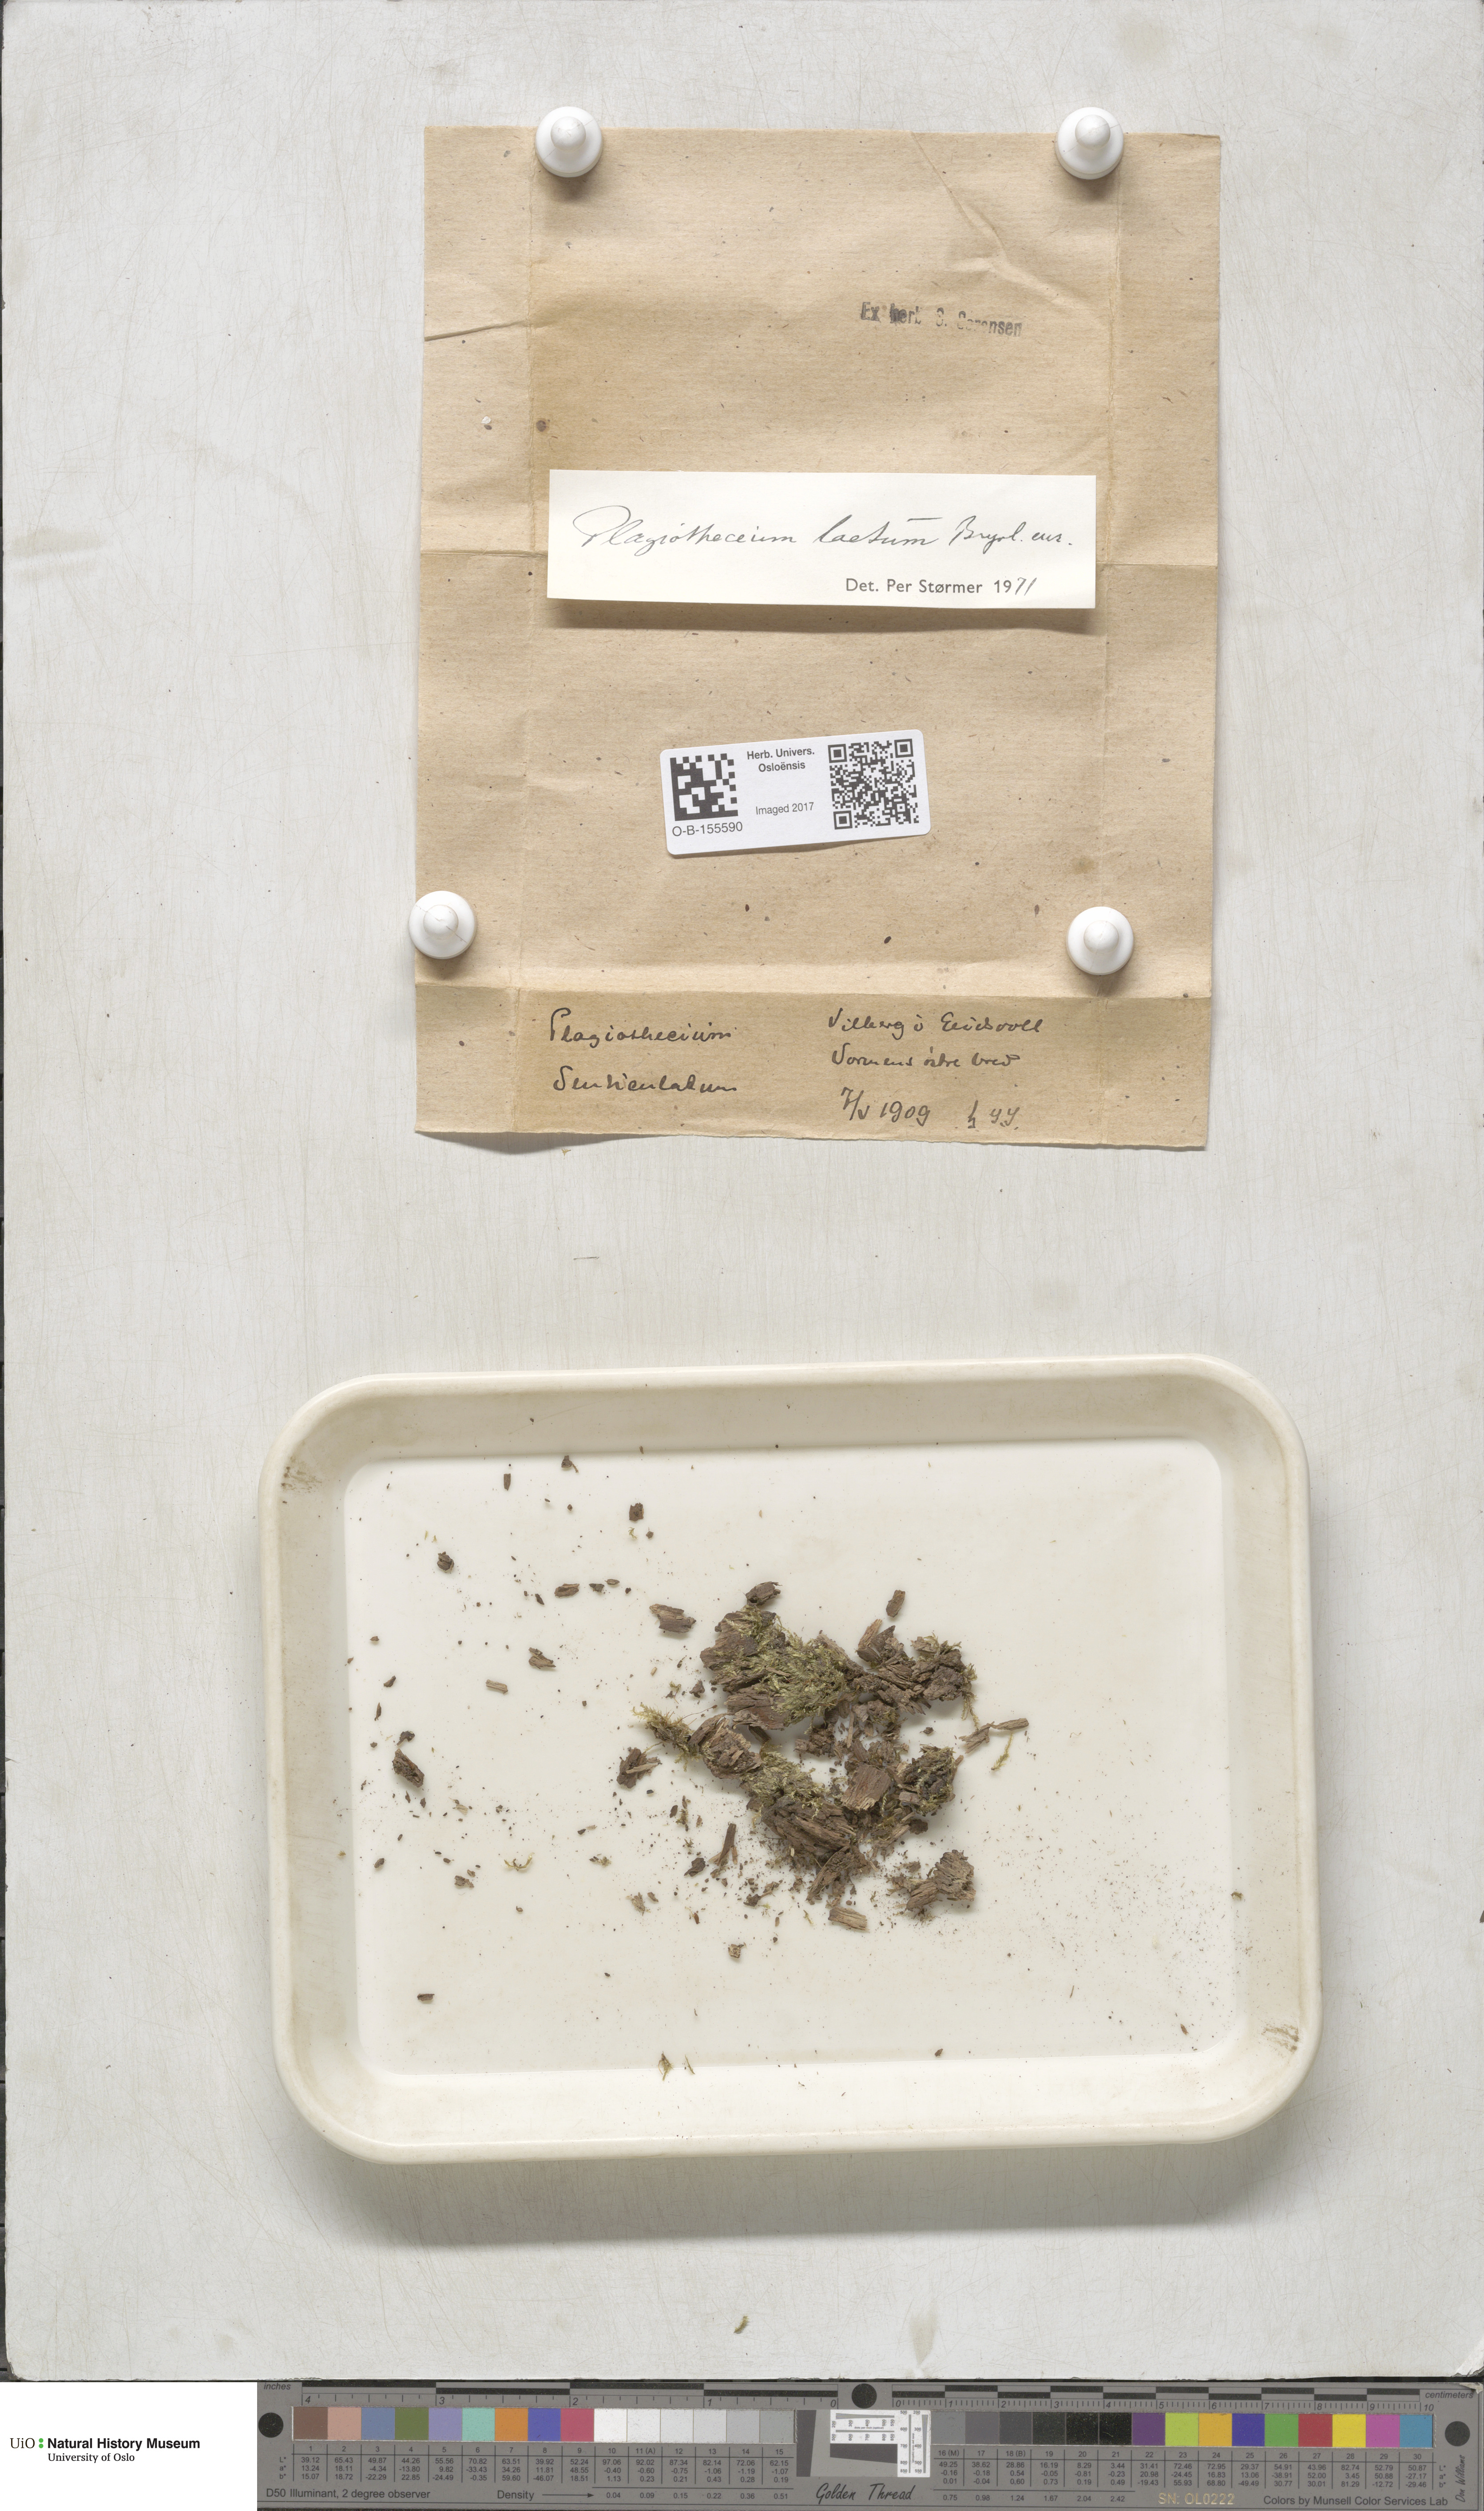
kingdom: Plantae
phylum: Bryophyta
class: Bryopsida
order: Hypnales
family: Plagiotheciaceae
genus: Plagiothecium
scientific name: Plagiothecium laetum
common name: Bright silk moss
